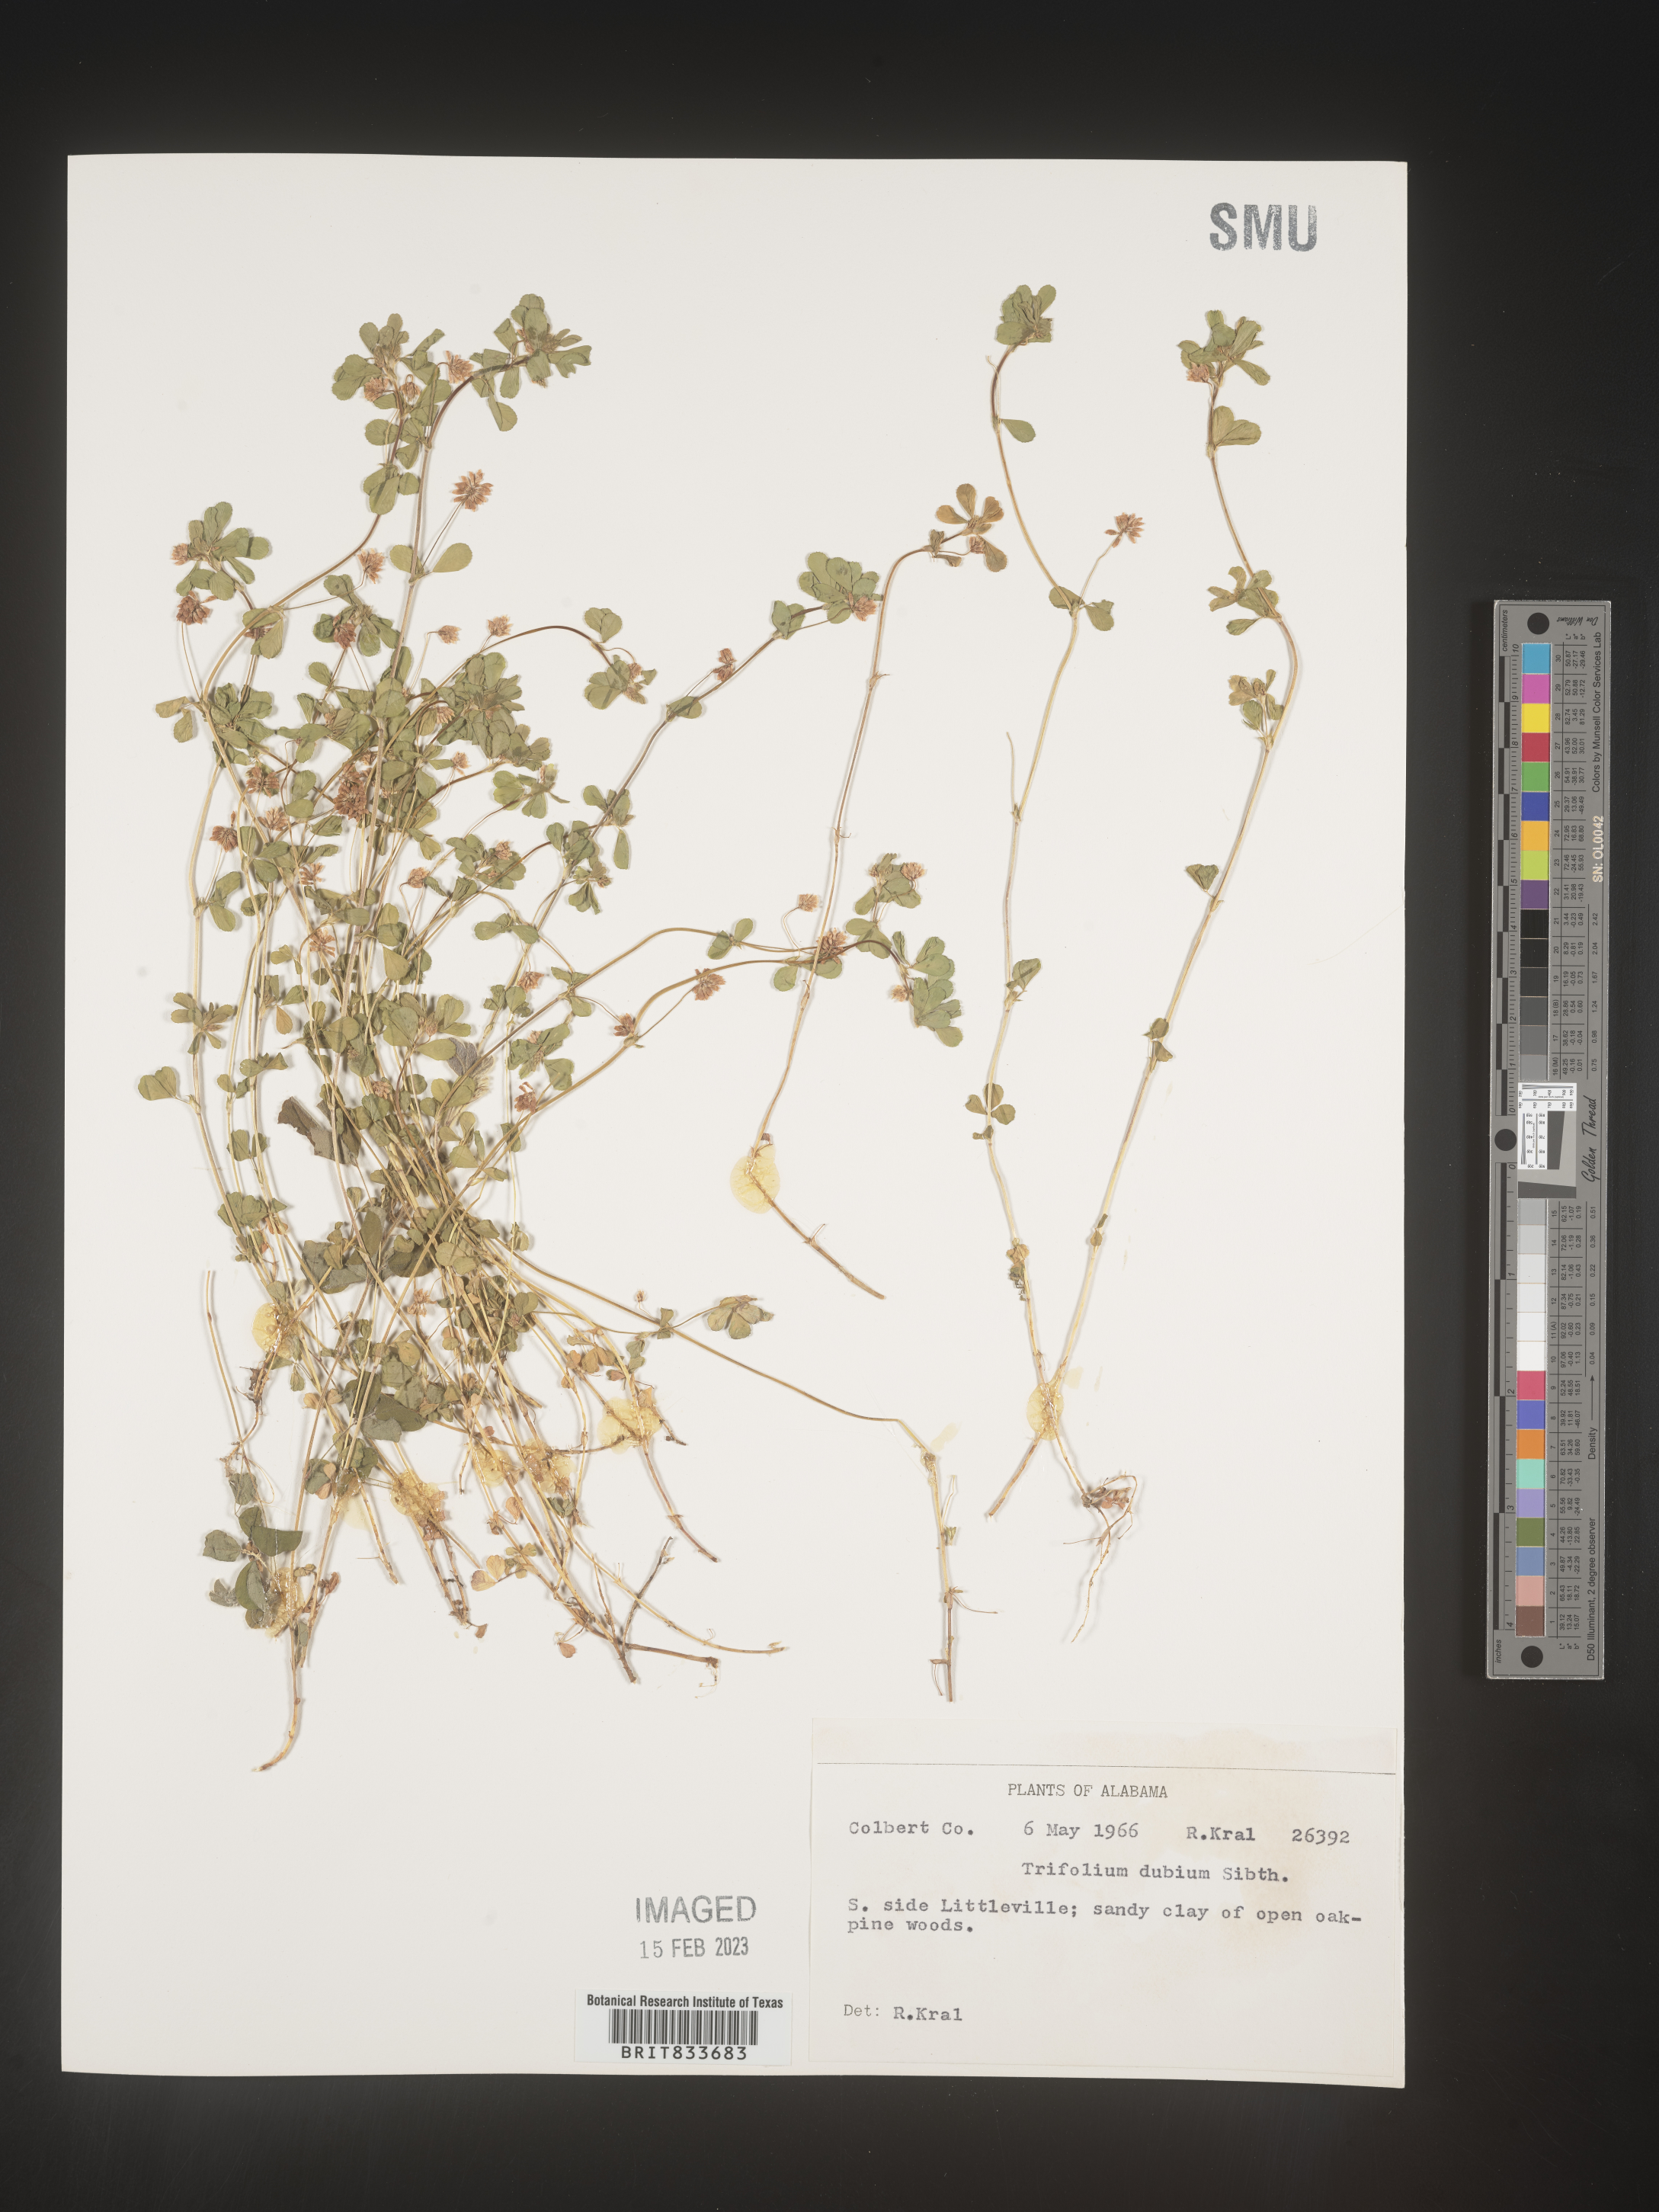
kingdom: Plantae
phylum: Tracheophyta
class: Magnoliopsida
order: Fabales
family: Fabaceae
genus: Trifolium
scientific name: Trifolium dubium
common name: Suckling clover
